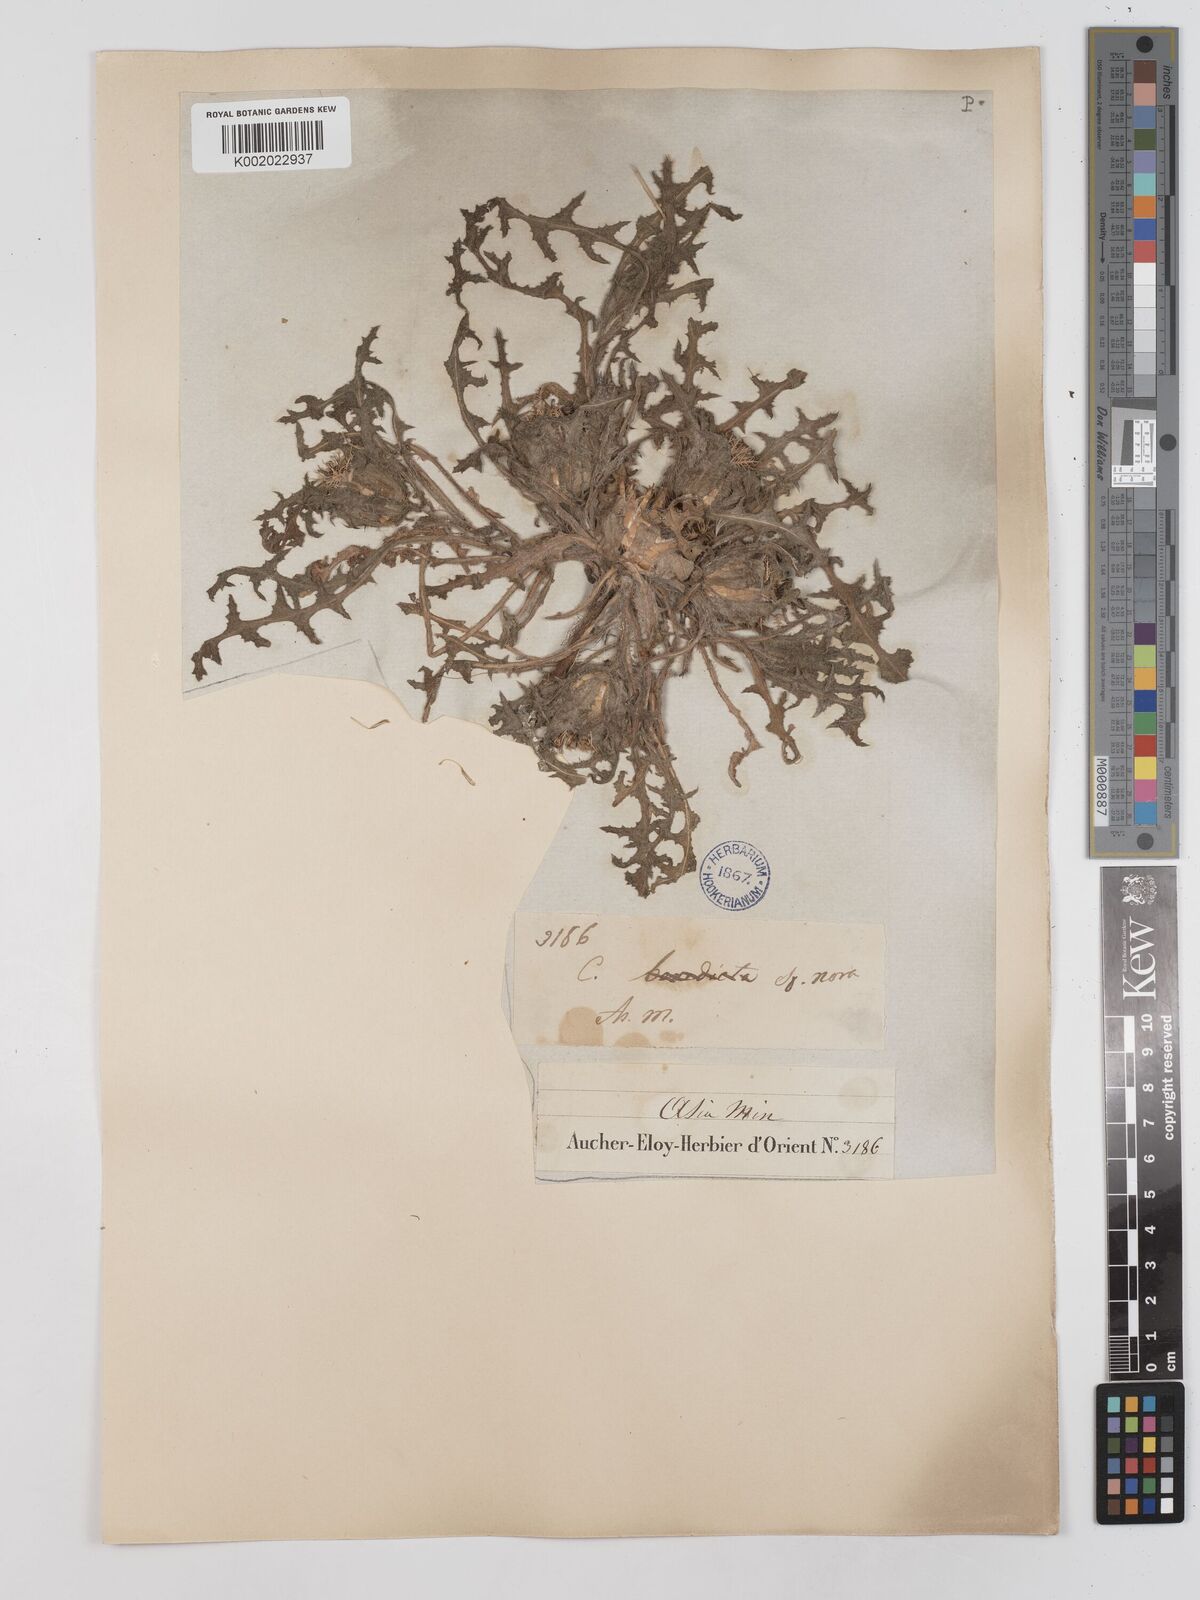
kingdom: Plantae
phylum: Tracheophyta
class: Magnoliopsida
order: Asterales
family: Asteraceae
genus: Centaurea
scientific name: Centaurea benedicta
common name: Blessed thistle
